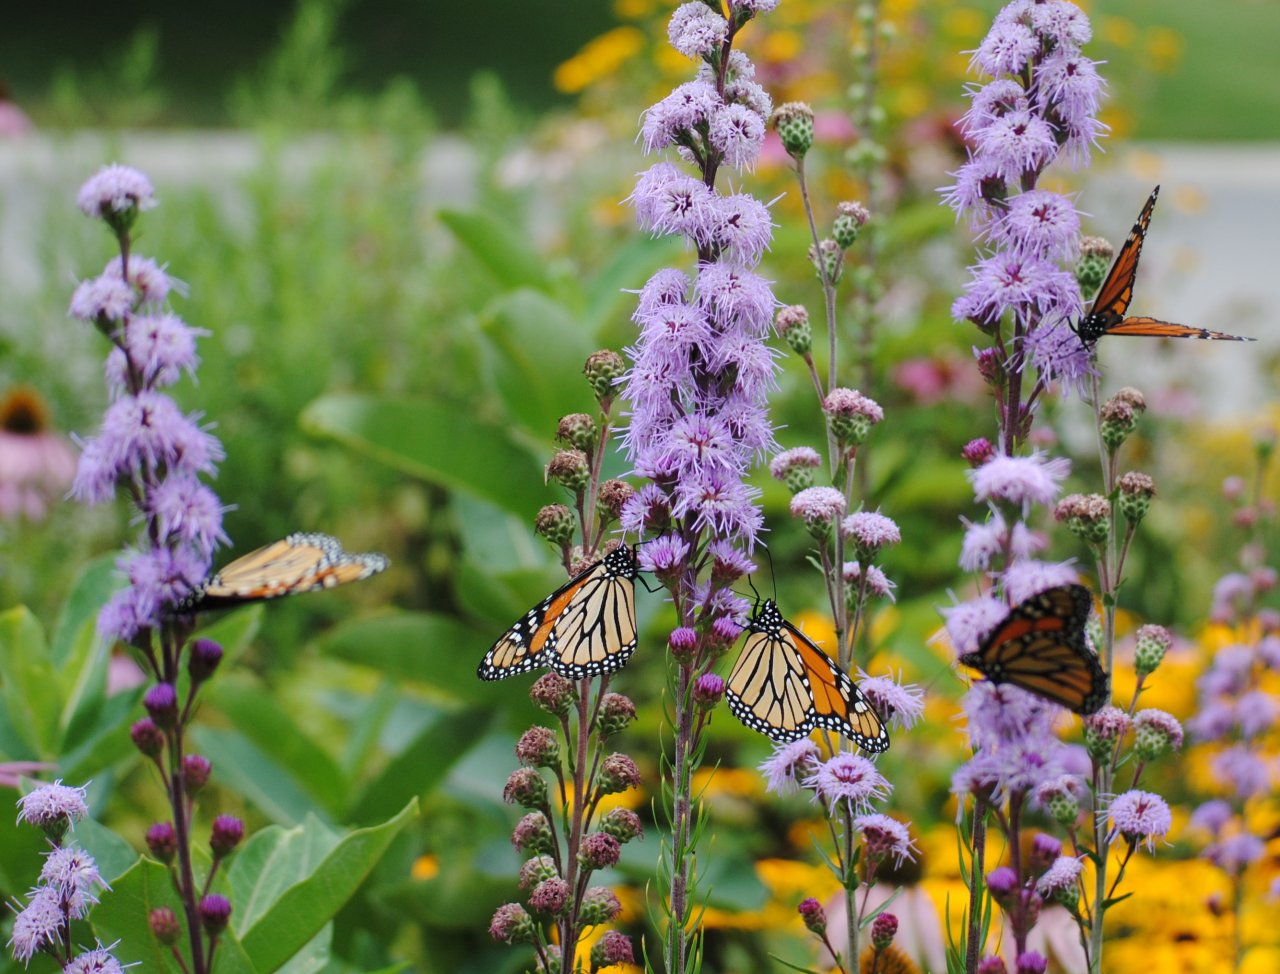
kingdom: Animalia
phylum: Arthropoda
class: Insecta
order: Lepidoptera
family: Nymphalidae
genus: Danaus
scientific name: Danaus plexippus
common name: Monarch
